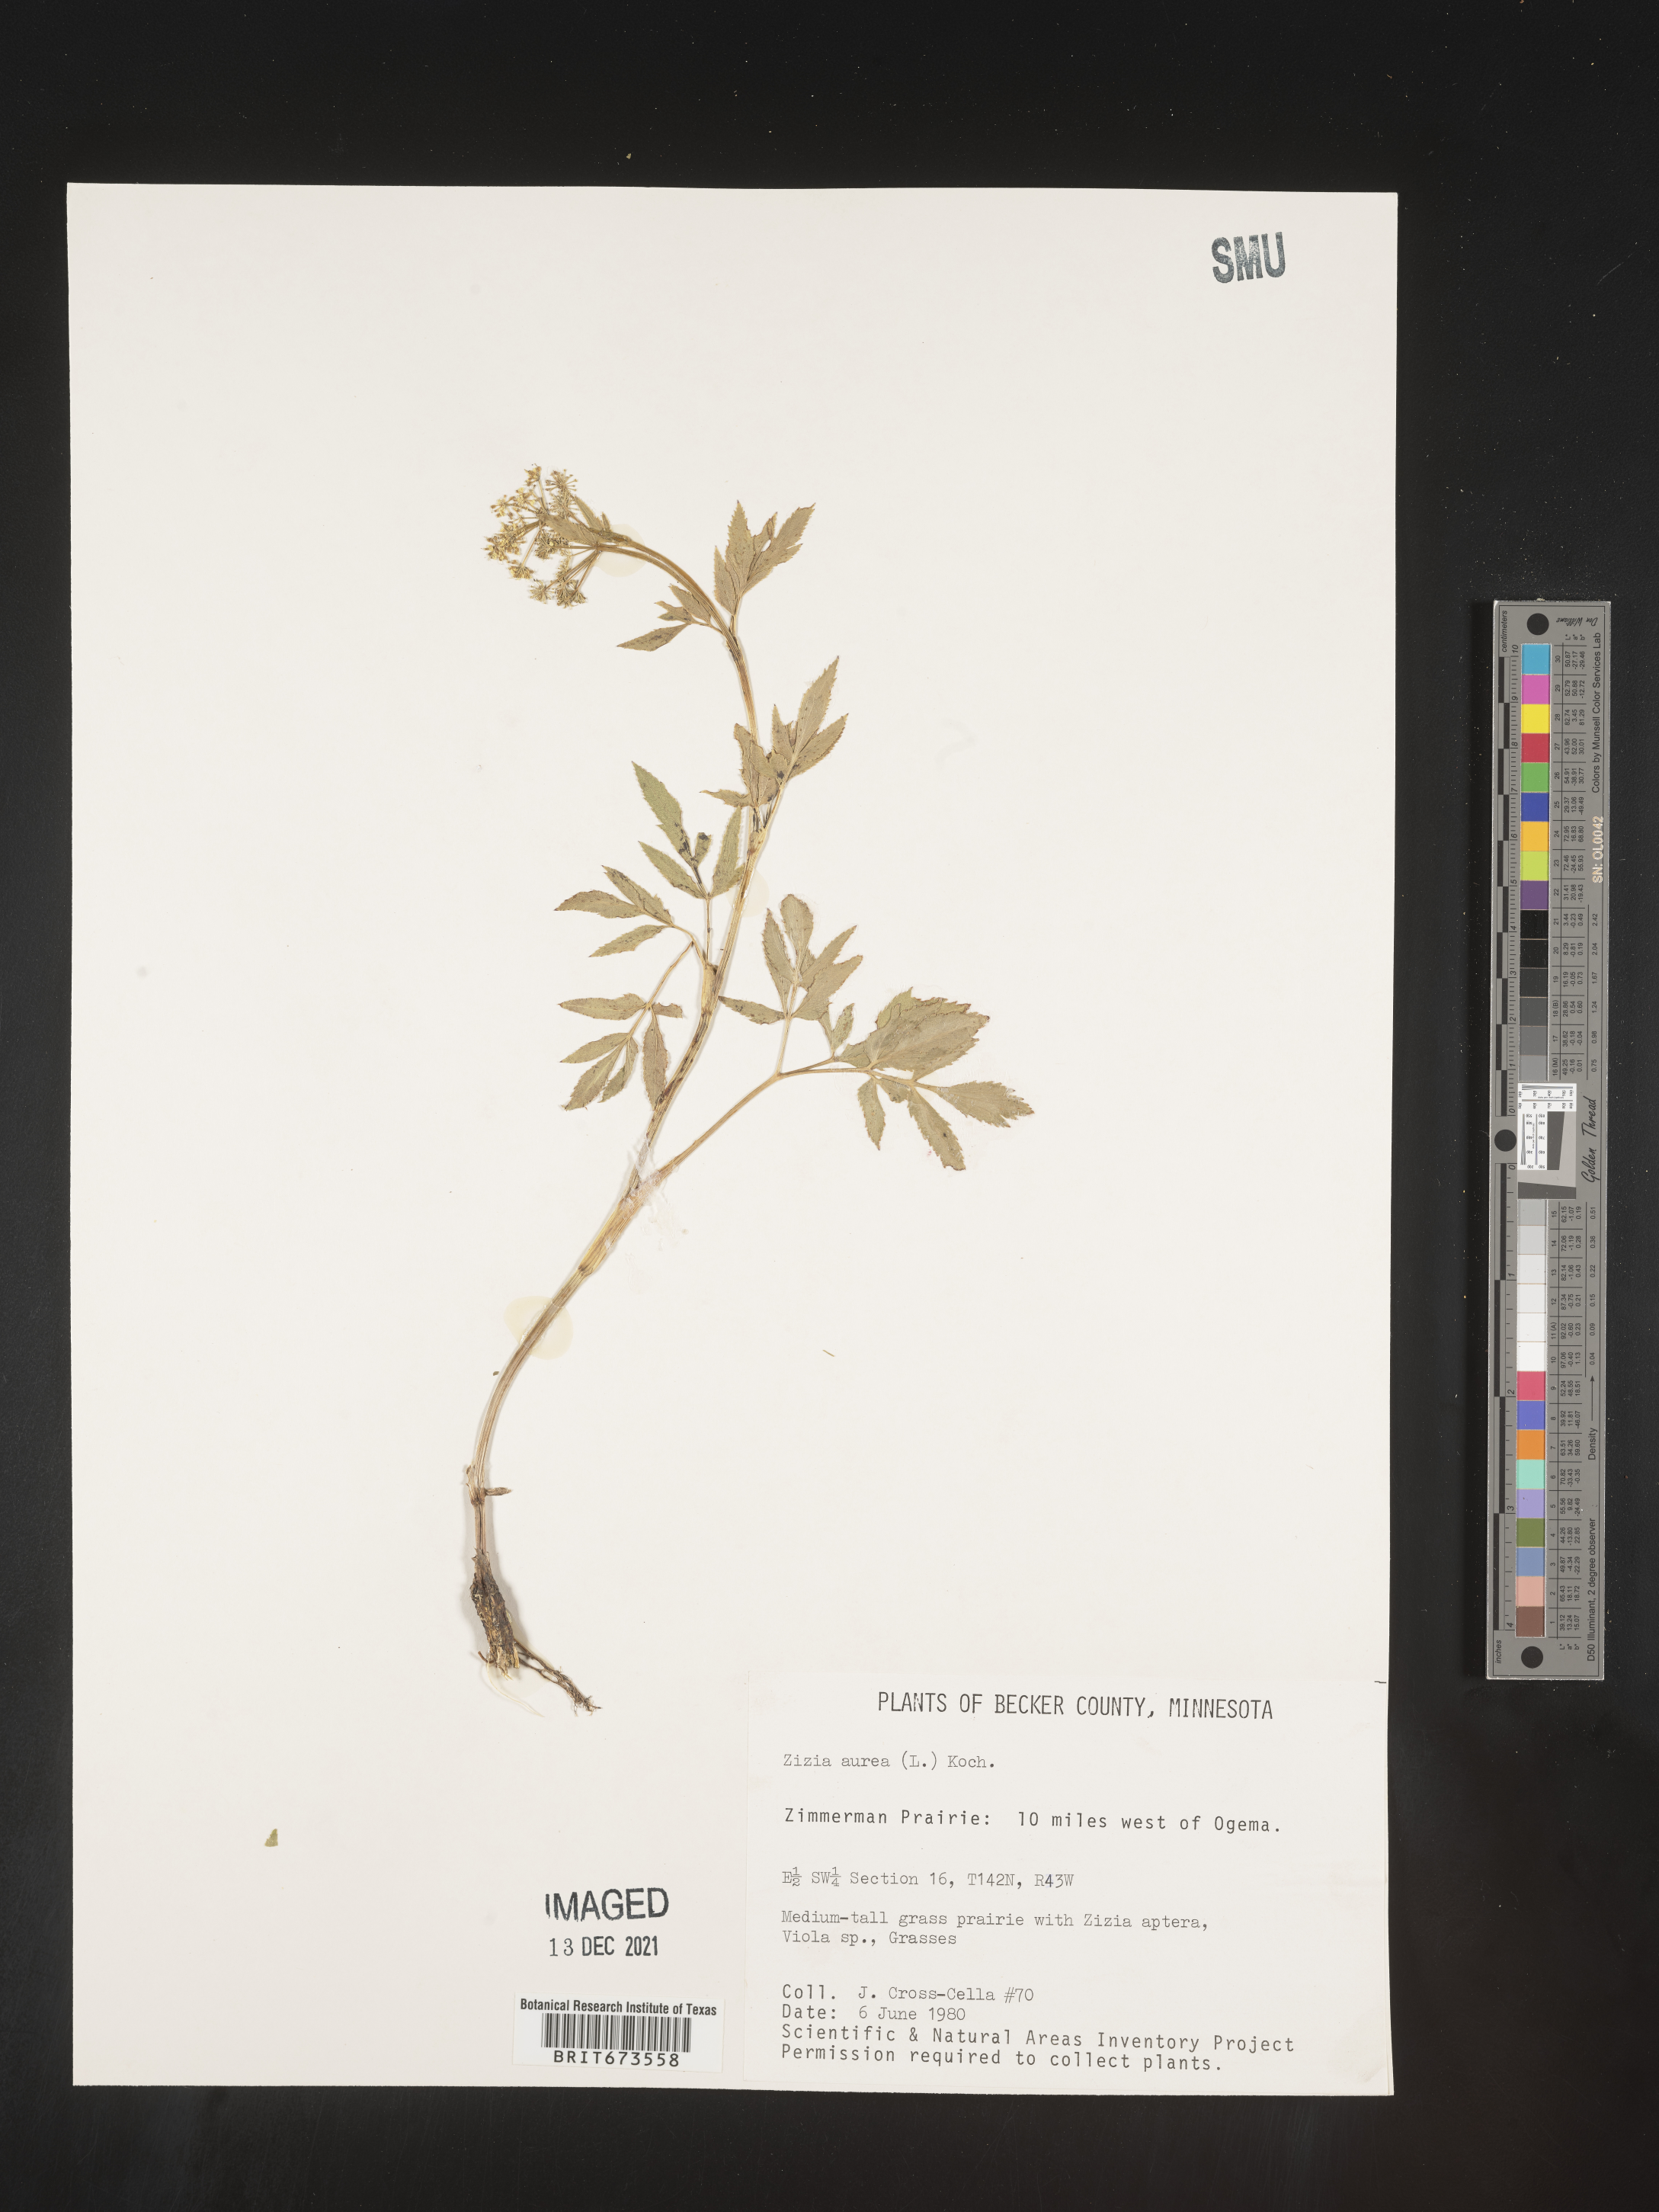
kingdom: Plantae
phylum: Tracheophyta
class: Magnoliopsida
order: Apiales
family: Apiaceae
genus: Zizia
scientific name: Zizia aurea
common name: Golden alexanders
